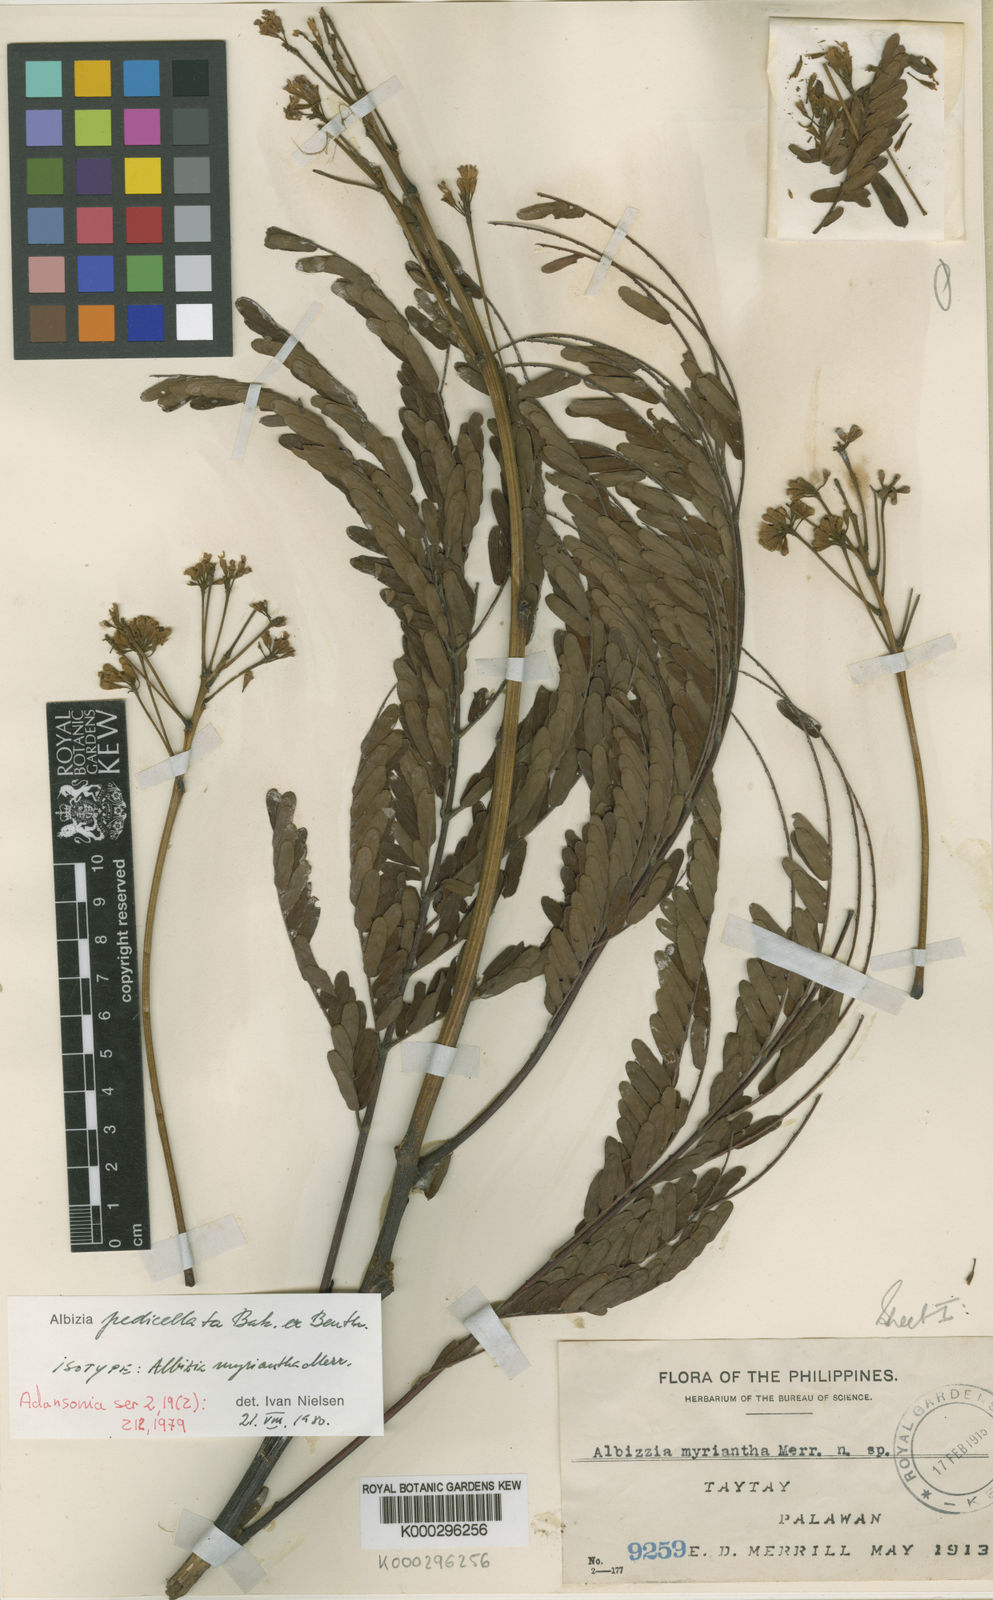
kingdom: Plantae
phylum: Tracheophyta
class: Magnoliopsida
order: Fabales
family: Fabaceae
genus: Albizia
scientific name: Albizia pedicellata
